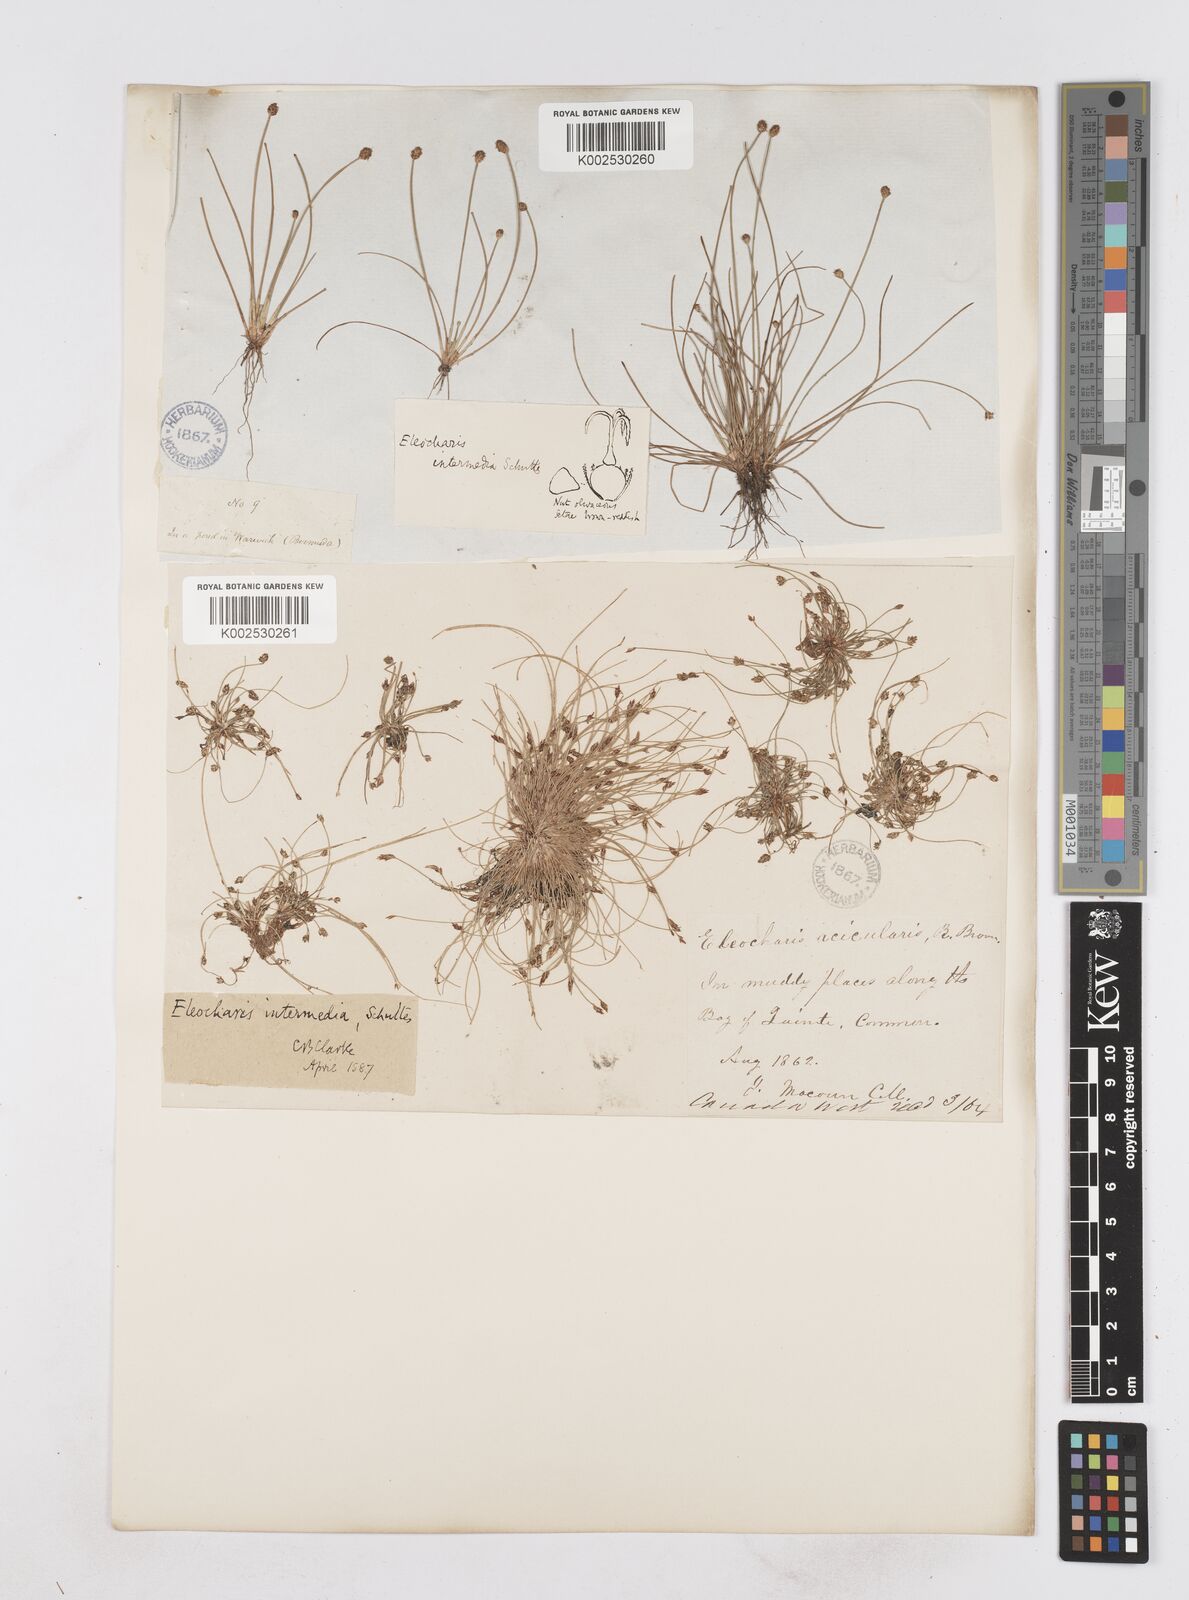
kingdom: Plantae
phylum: Tracheophyta
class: Liliopsida
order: Poales
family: Cyperaceae
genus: Eleocharis
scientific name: Eleocharis intermedia
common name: Intermediate spikerush
